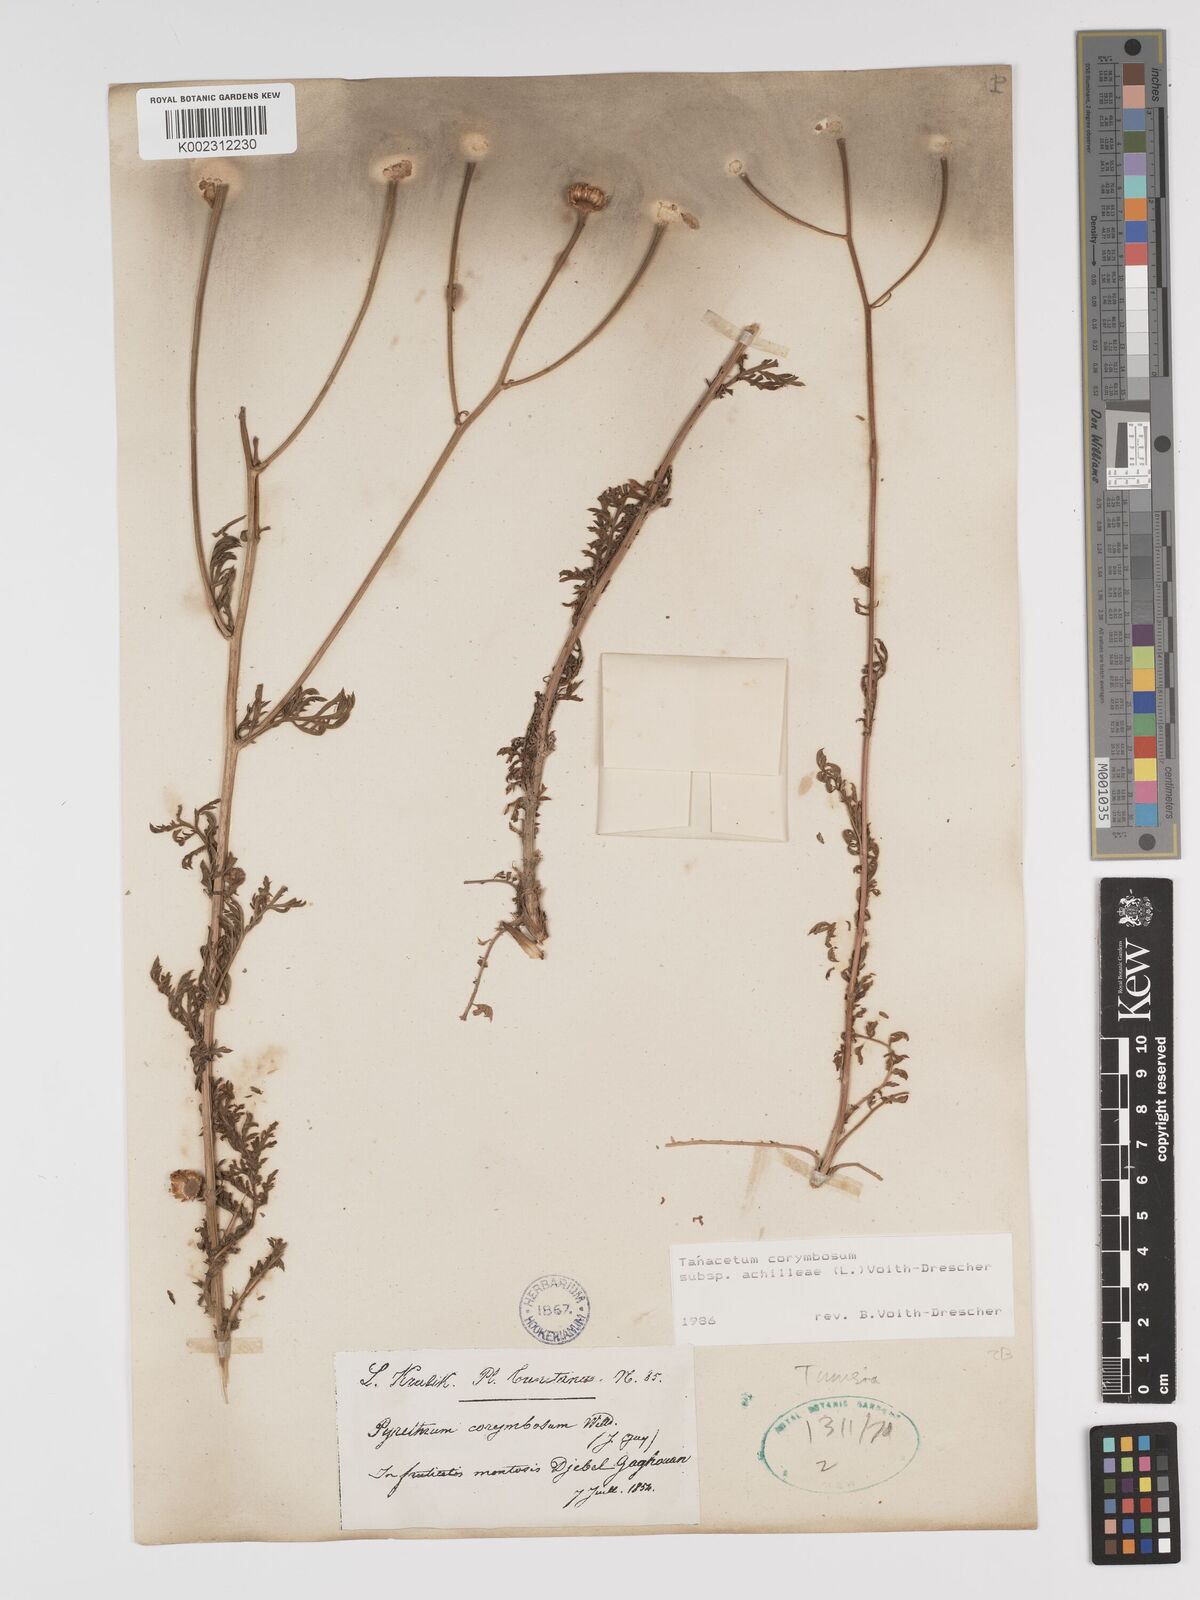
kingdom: Plantae
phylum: Tracheophyta
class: Magnoliopsida
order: Asterales
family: Asteraceae
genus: Tanacetum
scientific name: Tanacetum corymbosum
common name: Scentless feverfew
